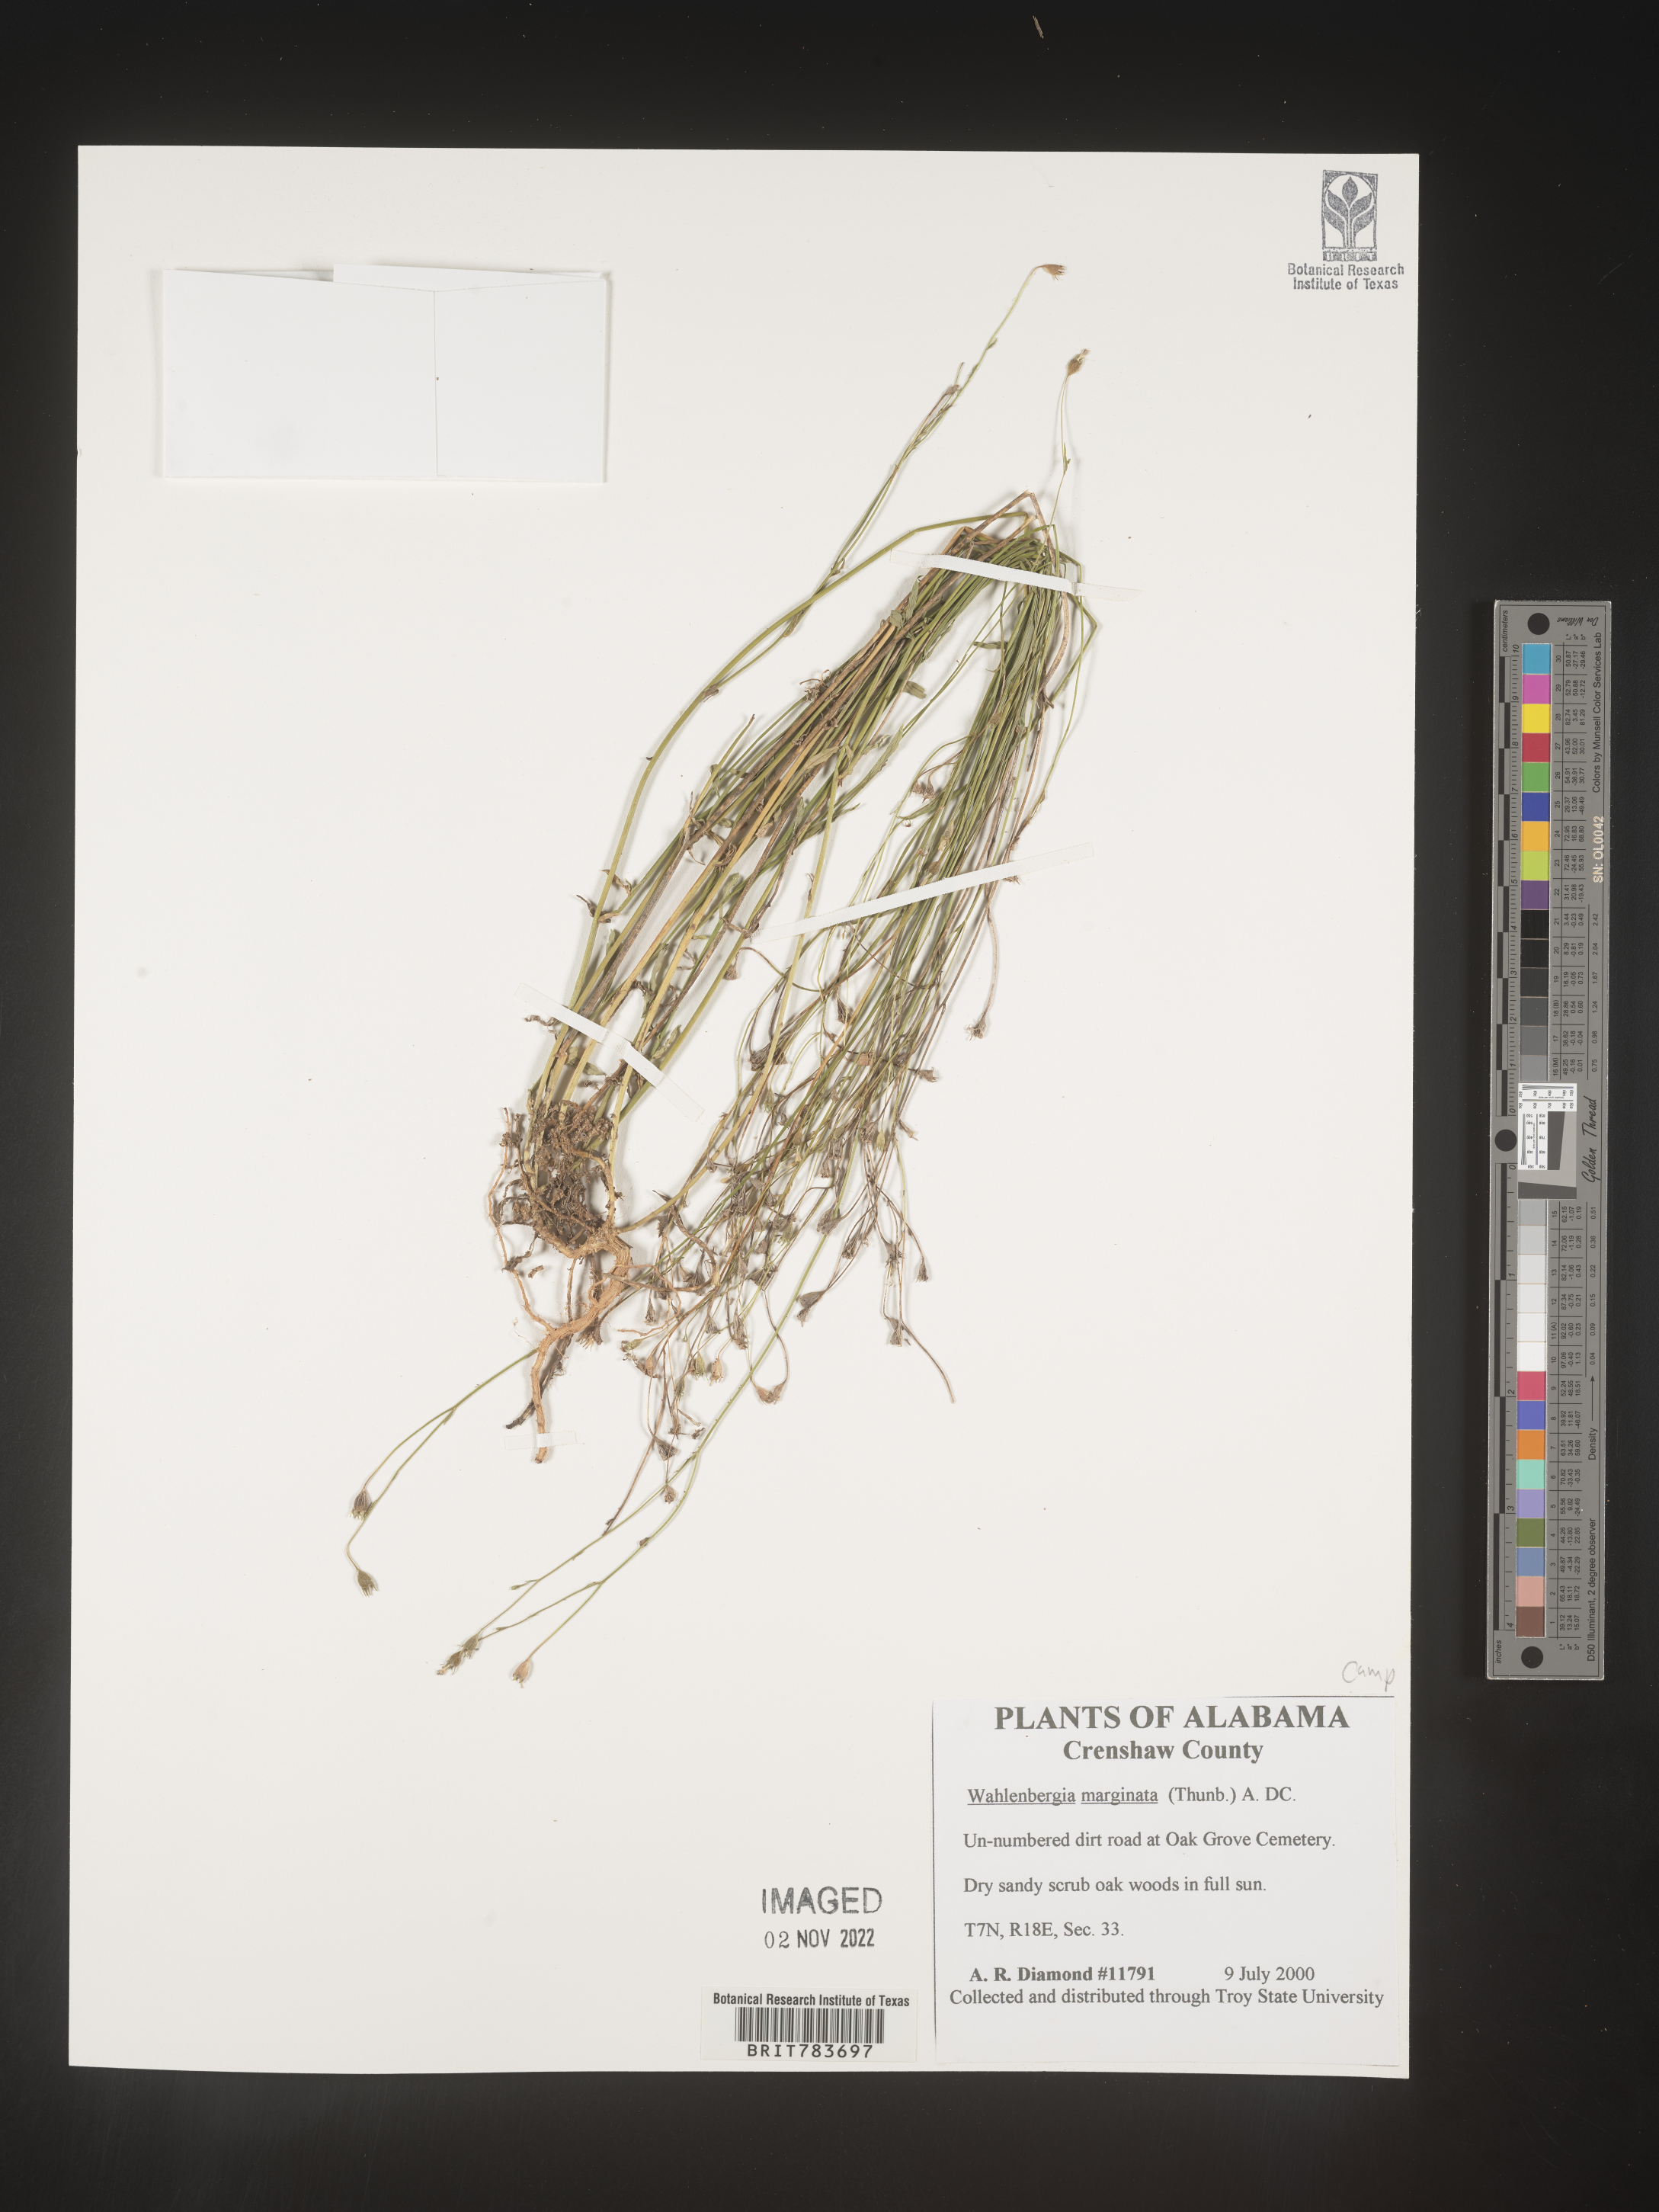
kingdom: Plantae
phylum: Tracheophyta
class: Magnoliopsida
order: Asterales
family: Campanulaceae
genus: Wahlenbergia
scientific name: Wahlenbergia marginata
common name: Southern rockbell
